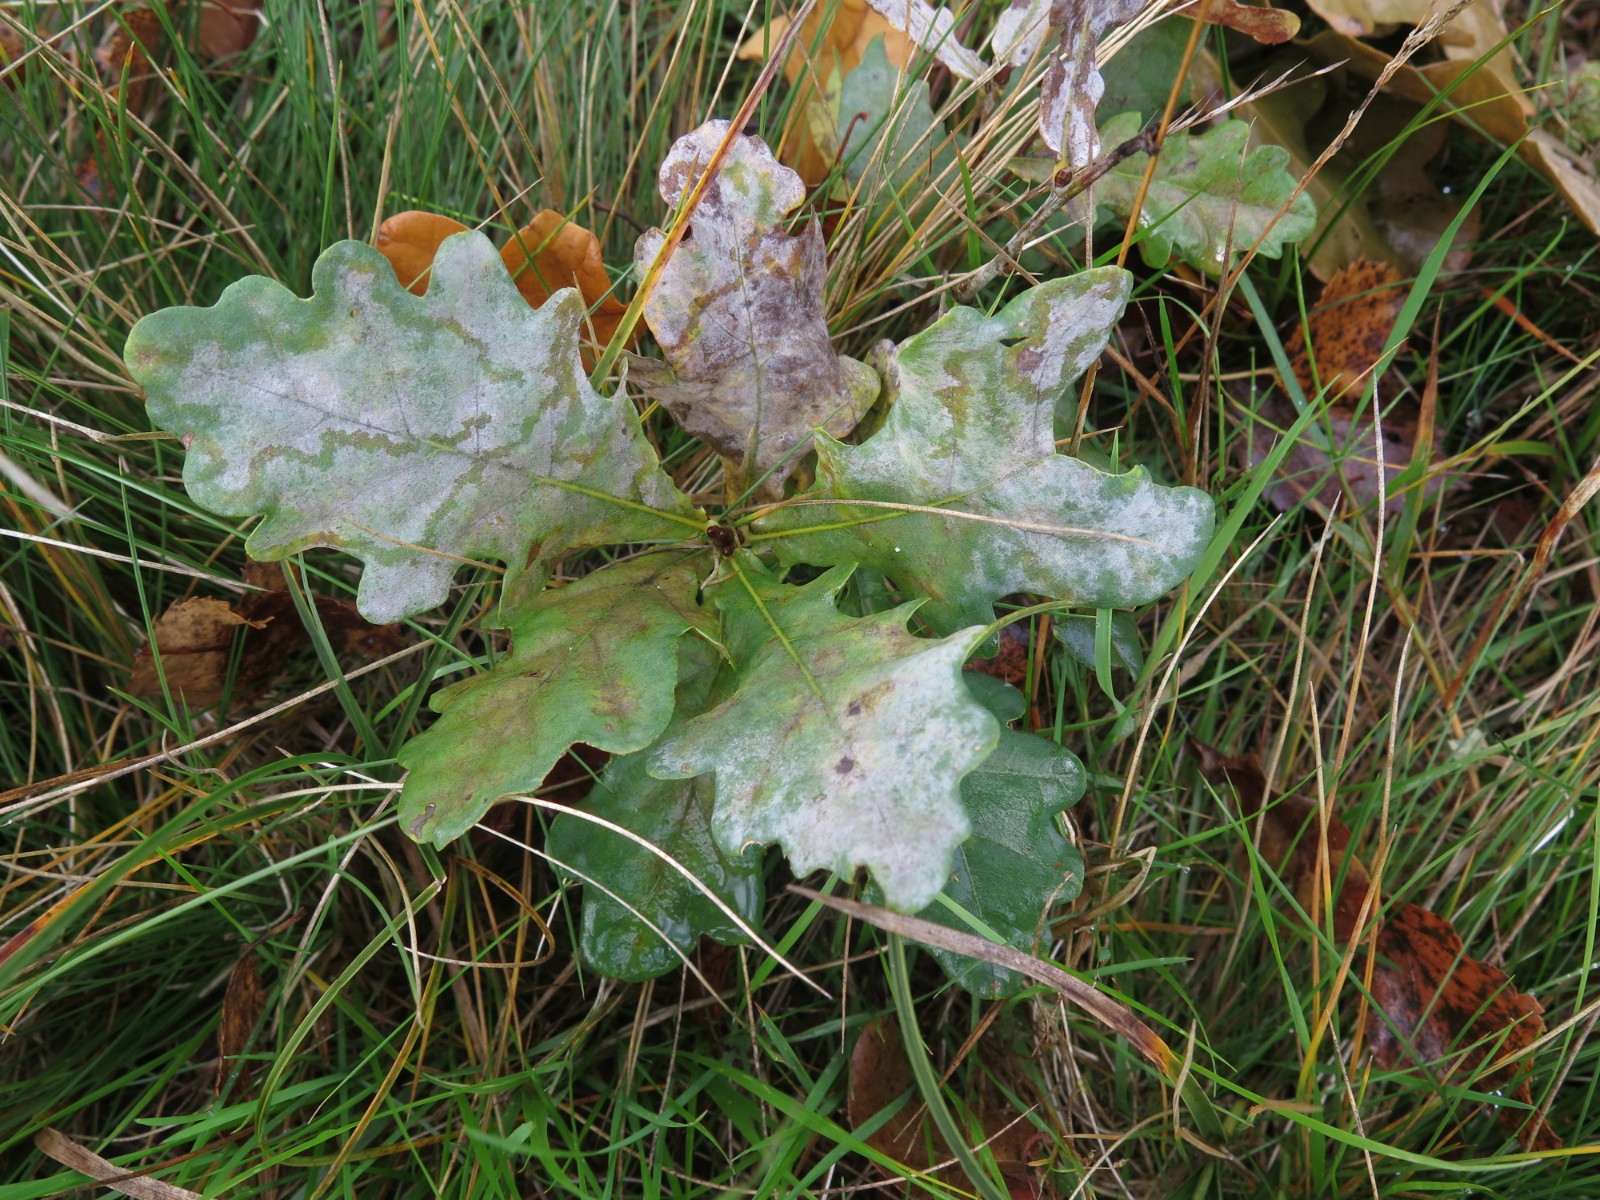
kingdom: Fungi
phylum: Ascomycota
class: Leotiomycetes
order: Helotiales
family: Erysiphaceae
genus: Erysiphe
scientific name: Erysiphe alphitoides
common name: ege-meldug
